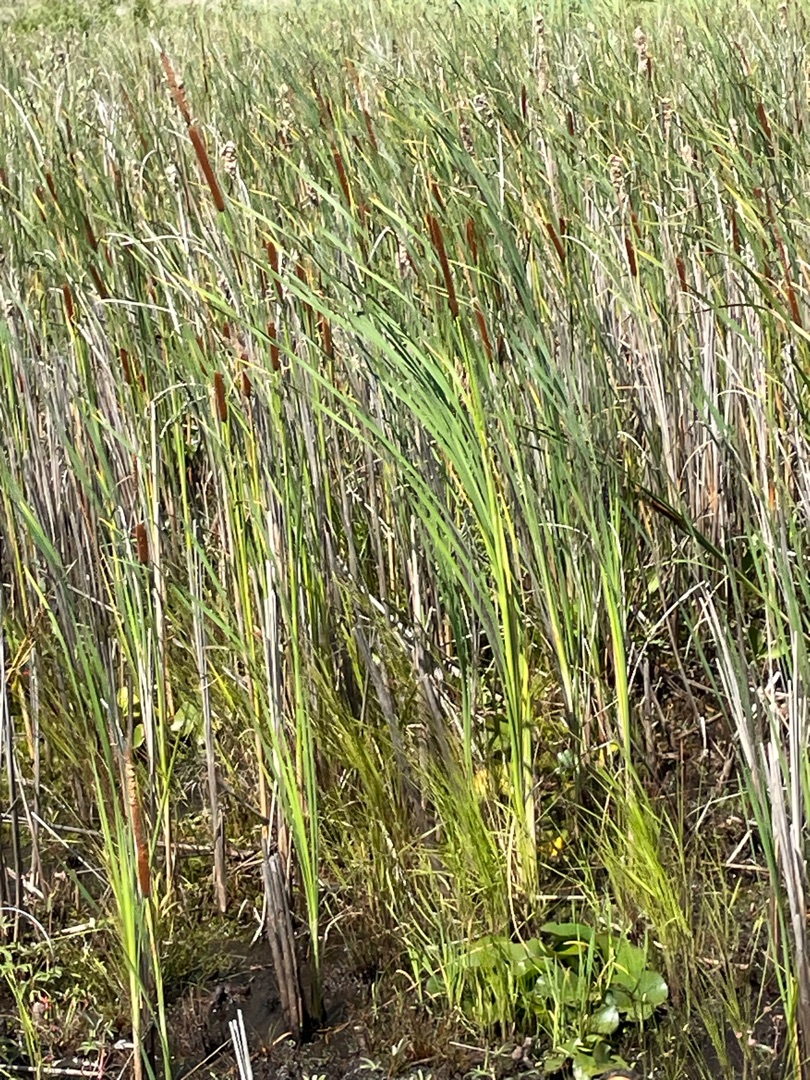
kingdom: Plantae
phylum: Tracheophyta
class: Liliopsida
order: Poales
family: Typhaceae
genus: Typha
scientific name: Typha angustifolia
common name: Smalbladet dunhammer
